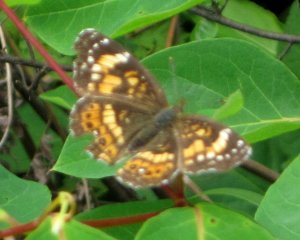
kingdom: Animalia
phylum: Arthropoda
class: Insecta
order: Lepidoptera
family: Nymphalidae
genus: Chlosyne
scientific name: Chlosyne nycteis
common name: Silvery Checkerspot
